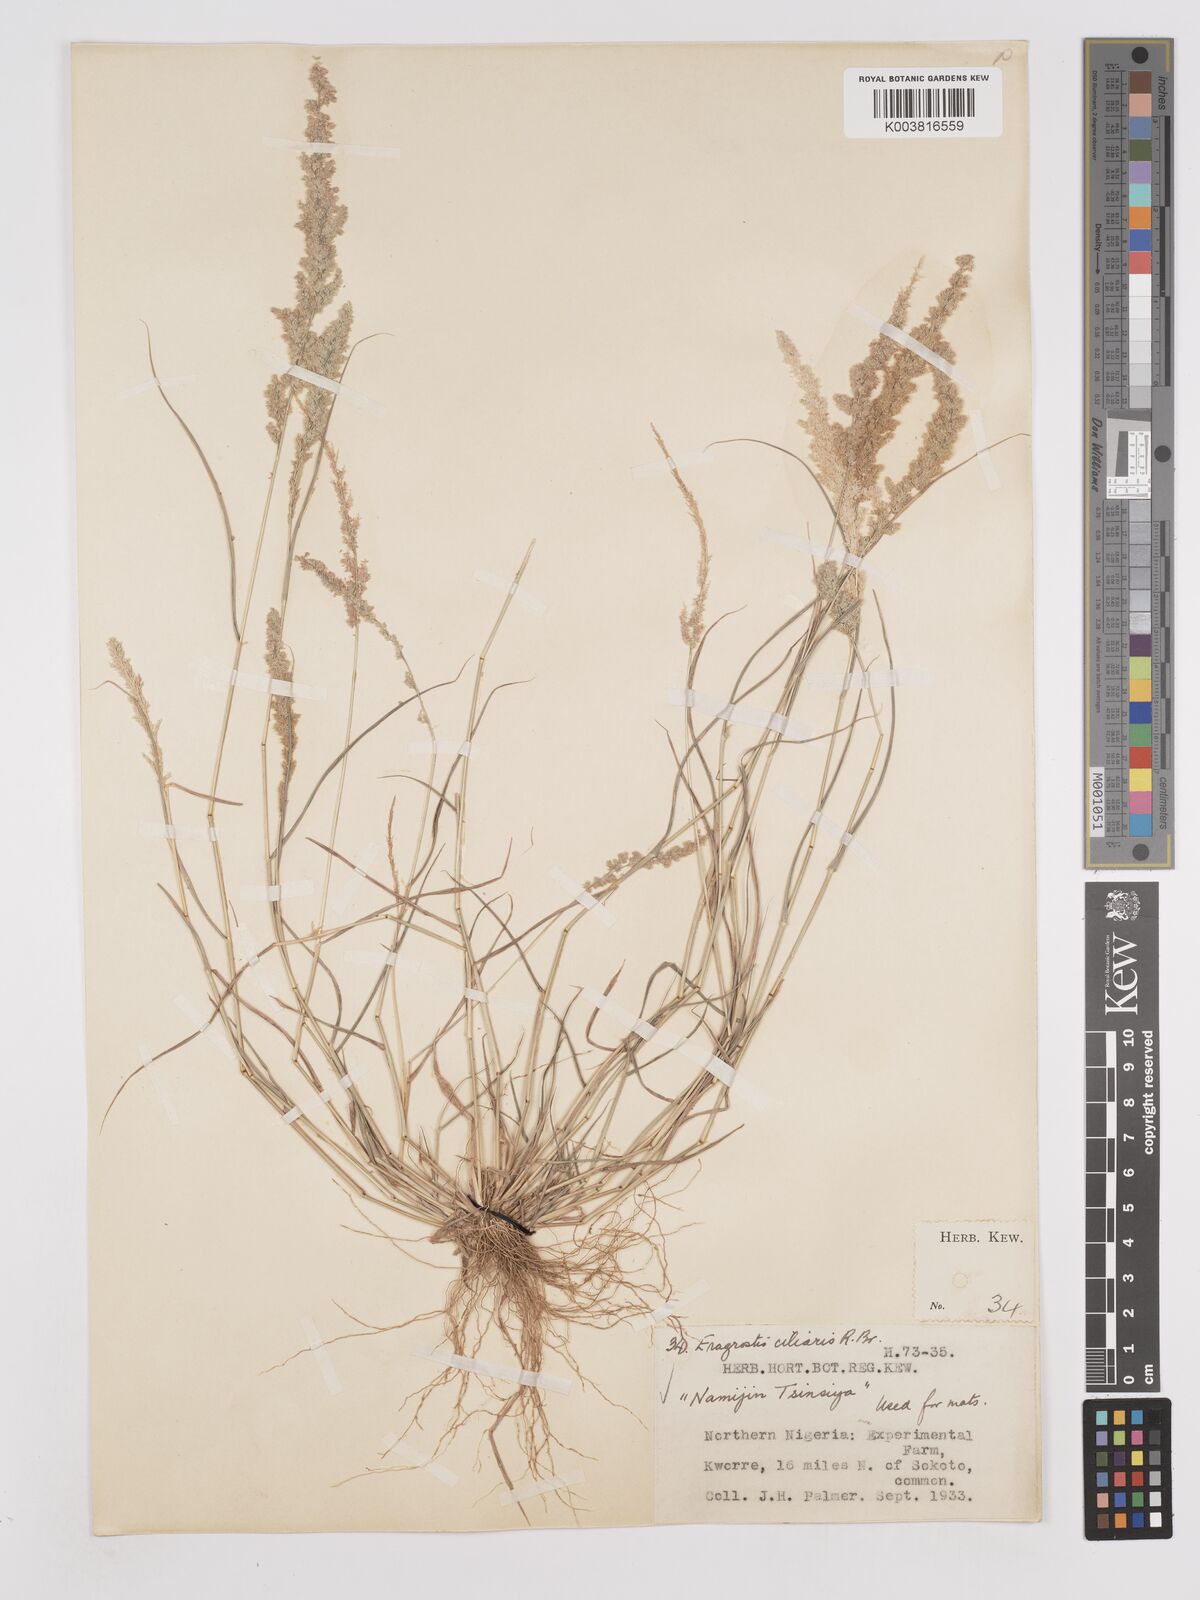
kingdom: Plantae
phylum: Tracheophyta
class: Liliopsida
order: Poales
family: Poaceae
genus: Eragrostis
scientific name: Eragrostis ciliaris
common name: Gophertail lovegrass
